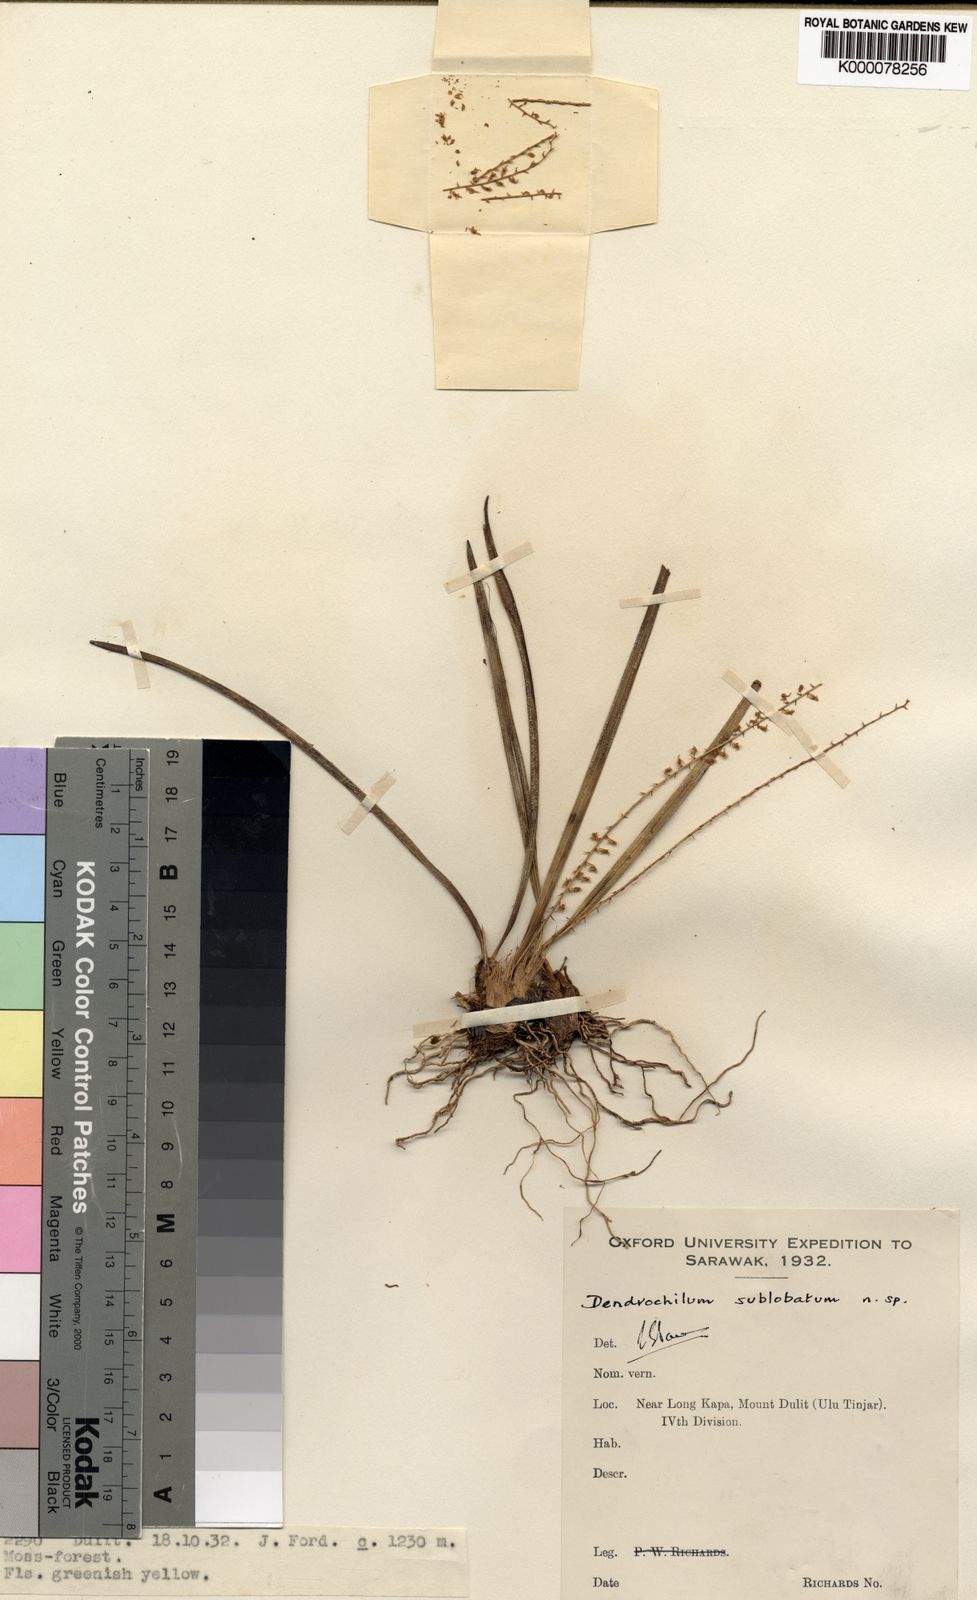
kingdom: Plantae
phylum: Tracheophyta
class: Liliopsida
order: Asparagales
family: Orchidaceae
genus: Coelogyne
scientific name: Coelogyne sublobata
